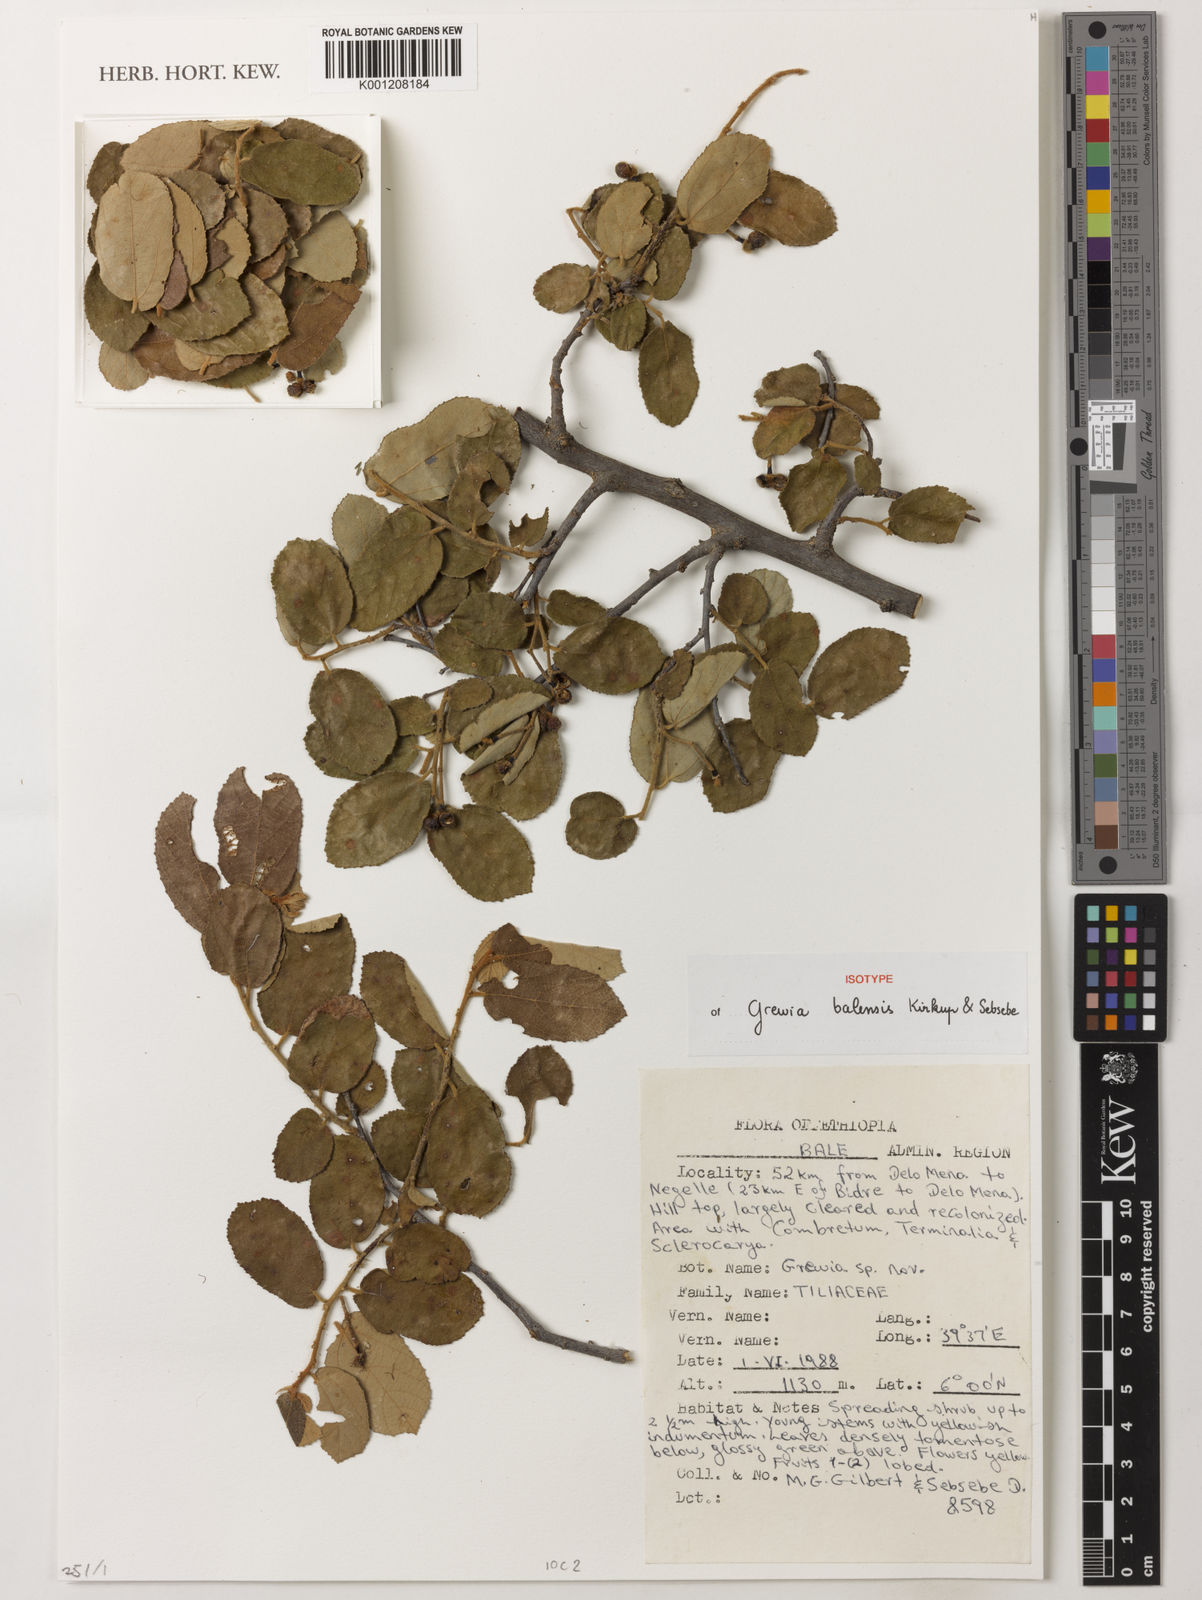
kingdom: Plantae
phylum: Tracheophyta
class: Magnoliopsida
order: Malvales
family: Malvaceae
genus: Grewia
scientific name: Grewia balensis
